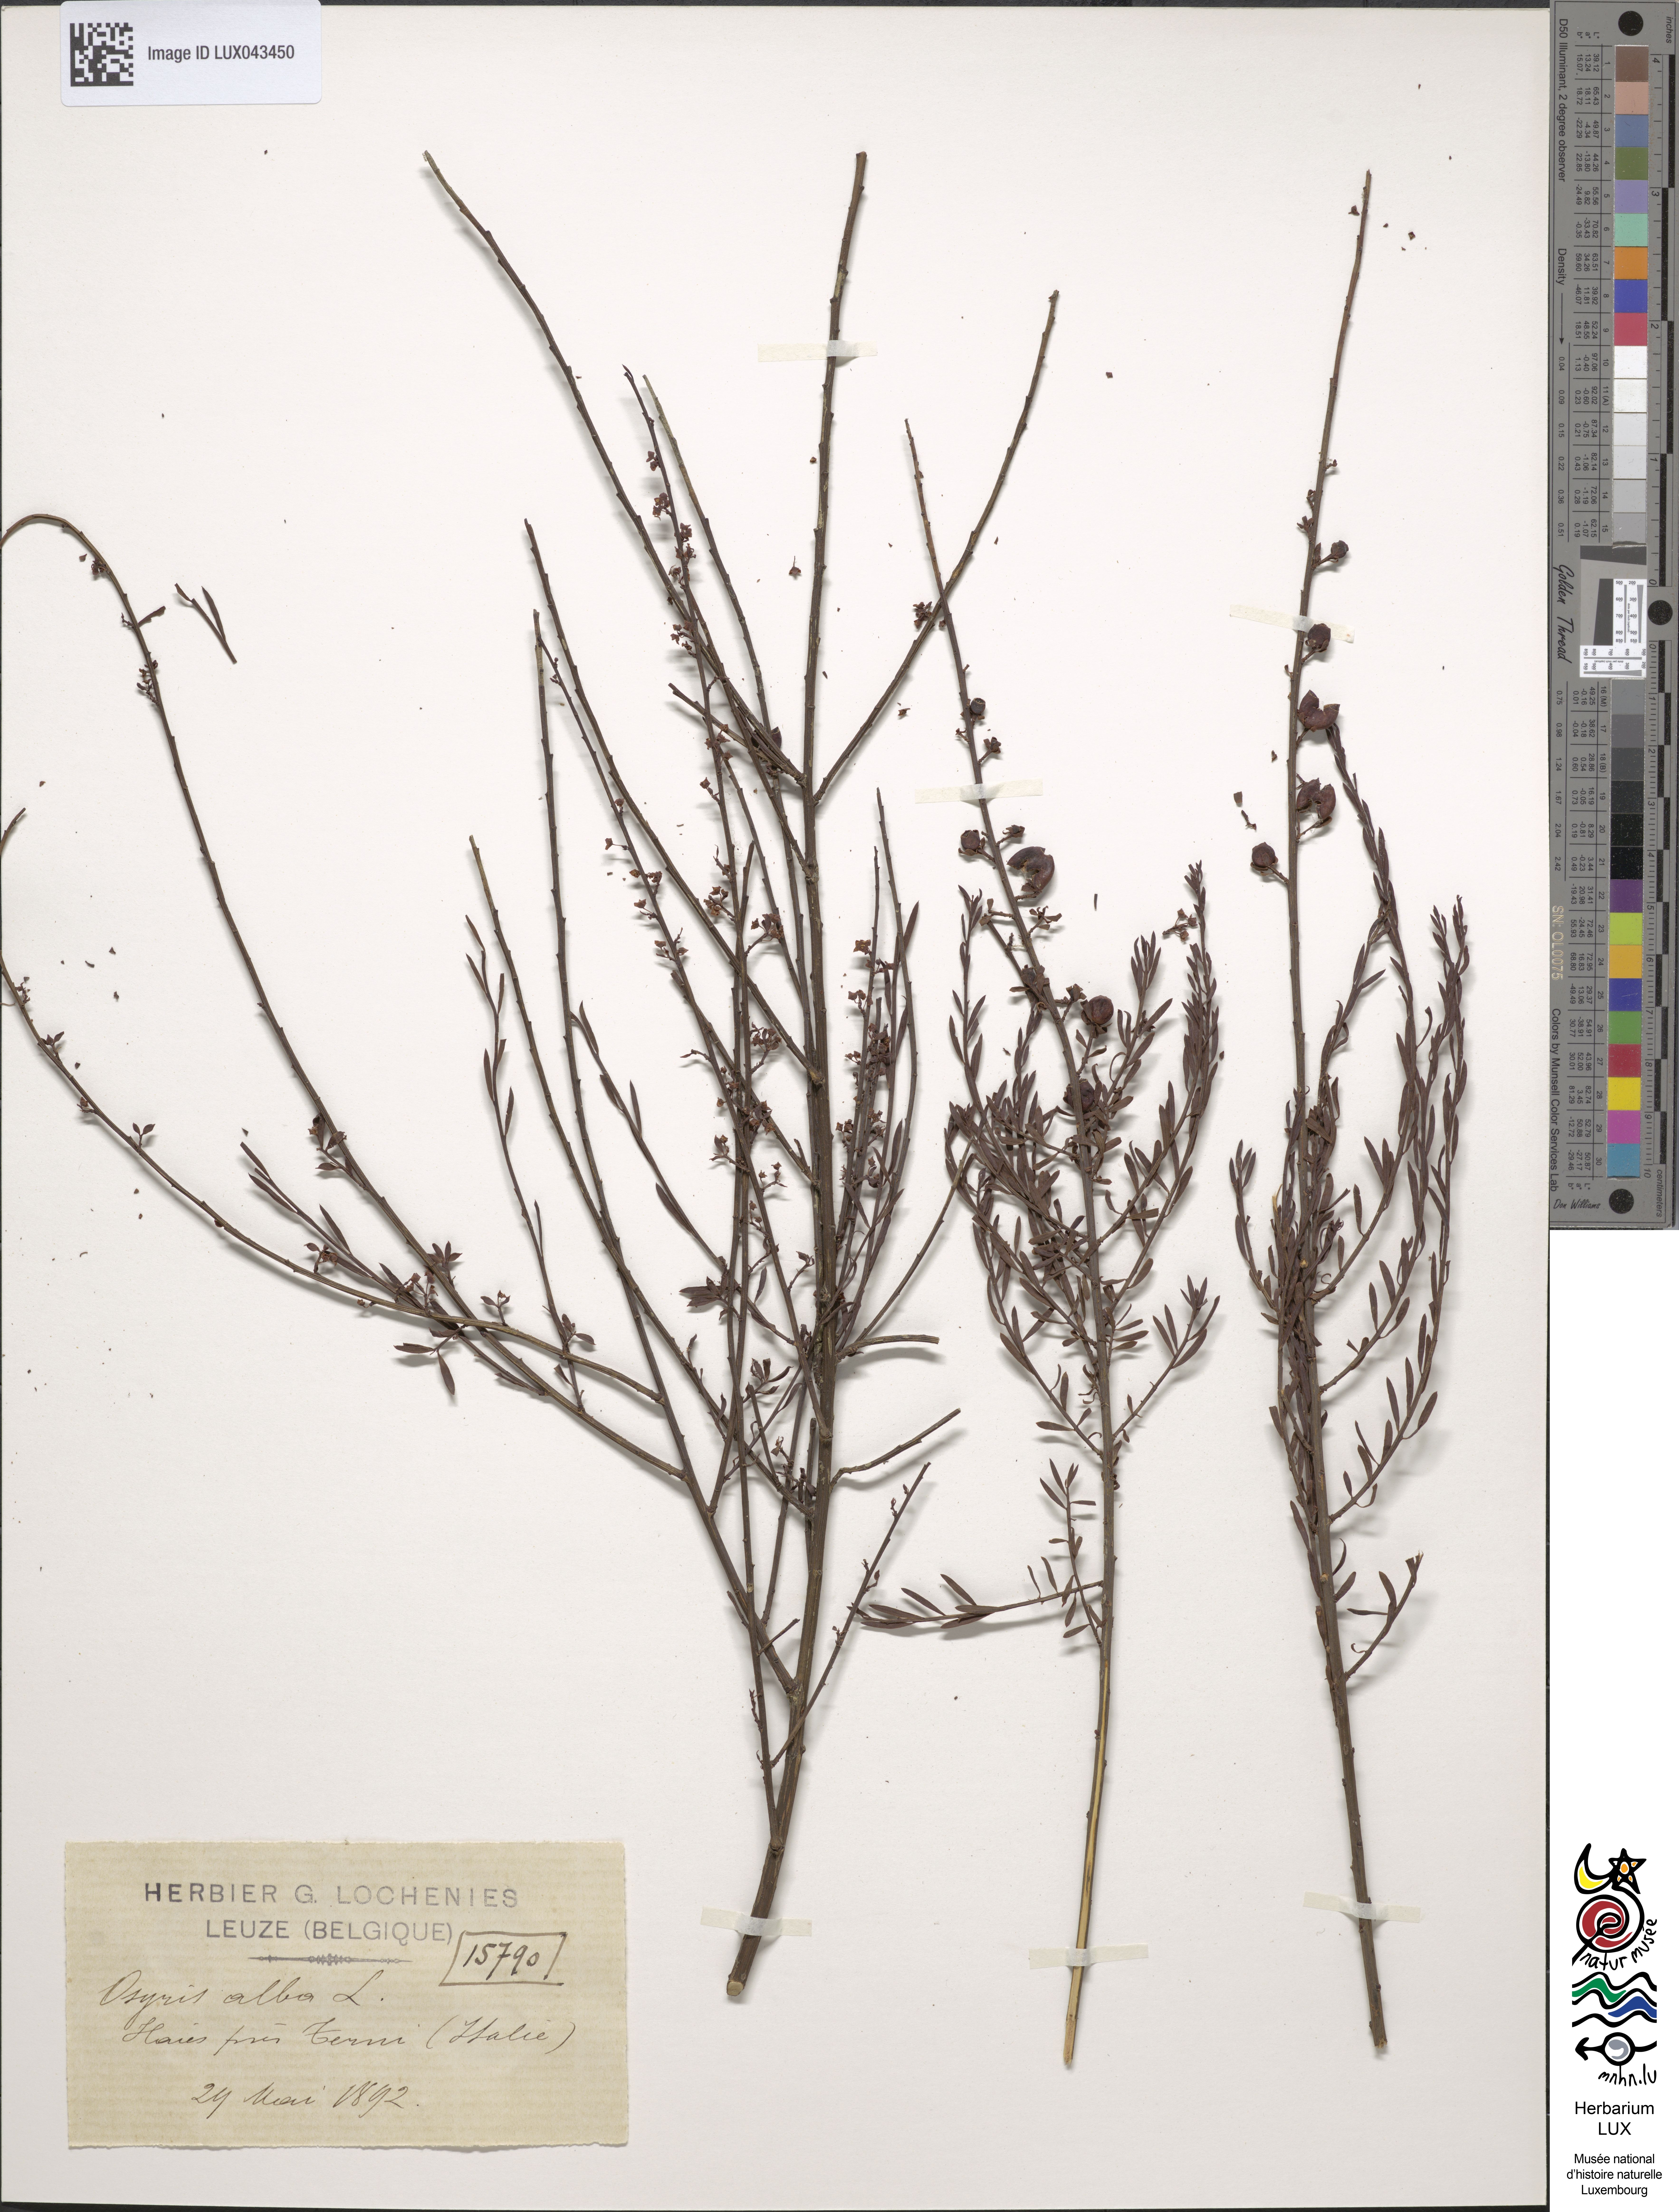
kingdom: Plantae
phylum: Tracheophyta
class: Magnoliopsida
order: Santalales
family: Santalaceae
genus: Osyris
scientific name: Osyris alba
